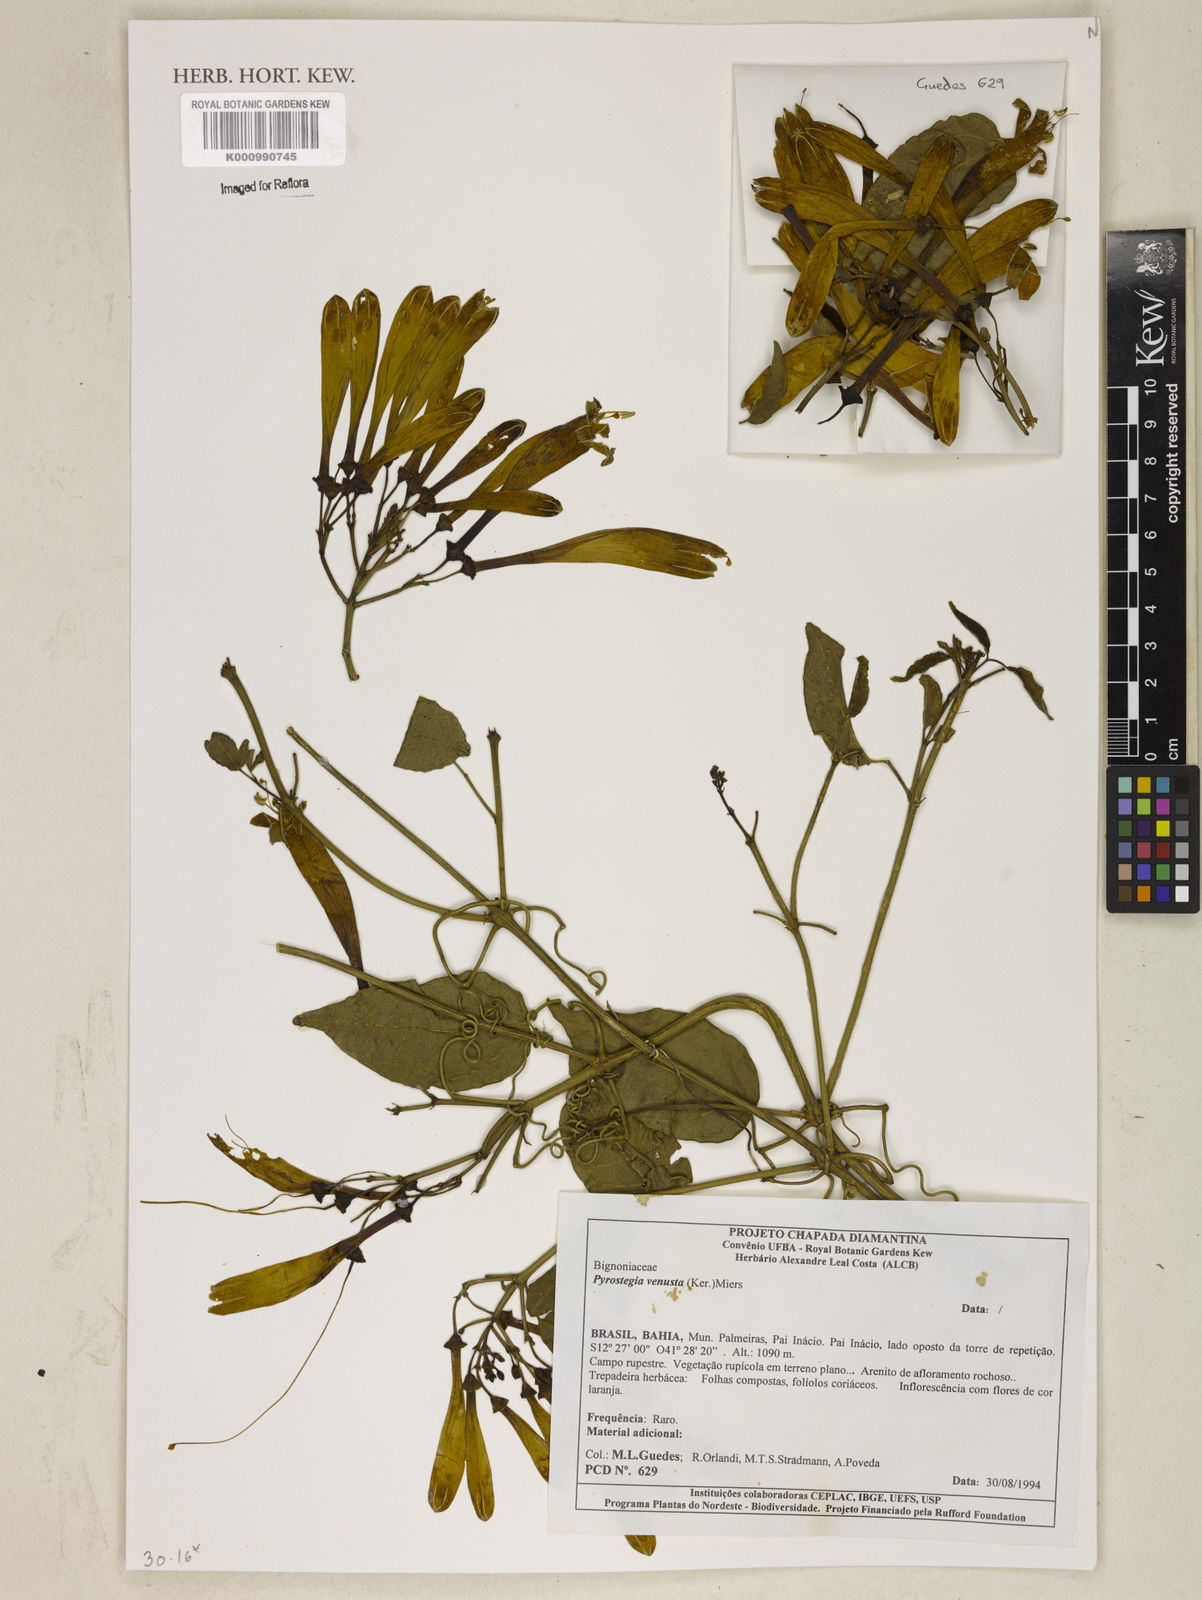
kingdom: Plantae
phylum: Tracheophyta
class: Magnoliopsida
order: Lamiales
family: Bignoniaceae
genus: Pyrostegia
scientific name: Pyrostegia venusta
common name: Flamevine
